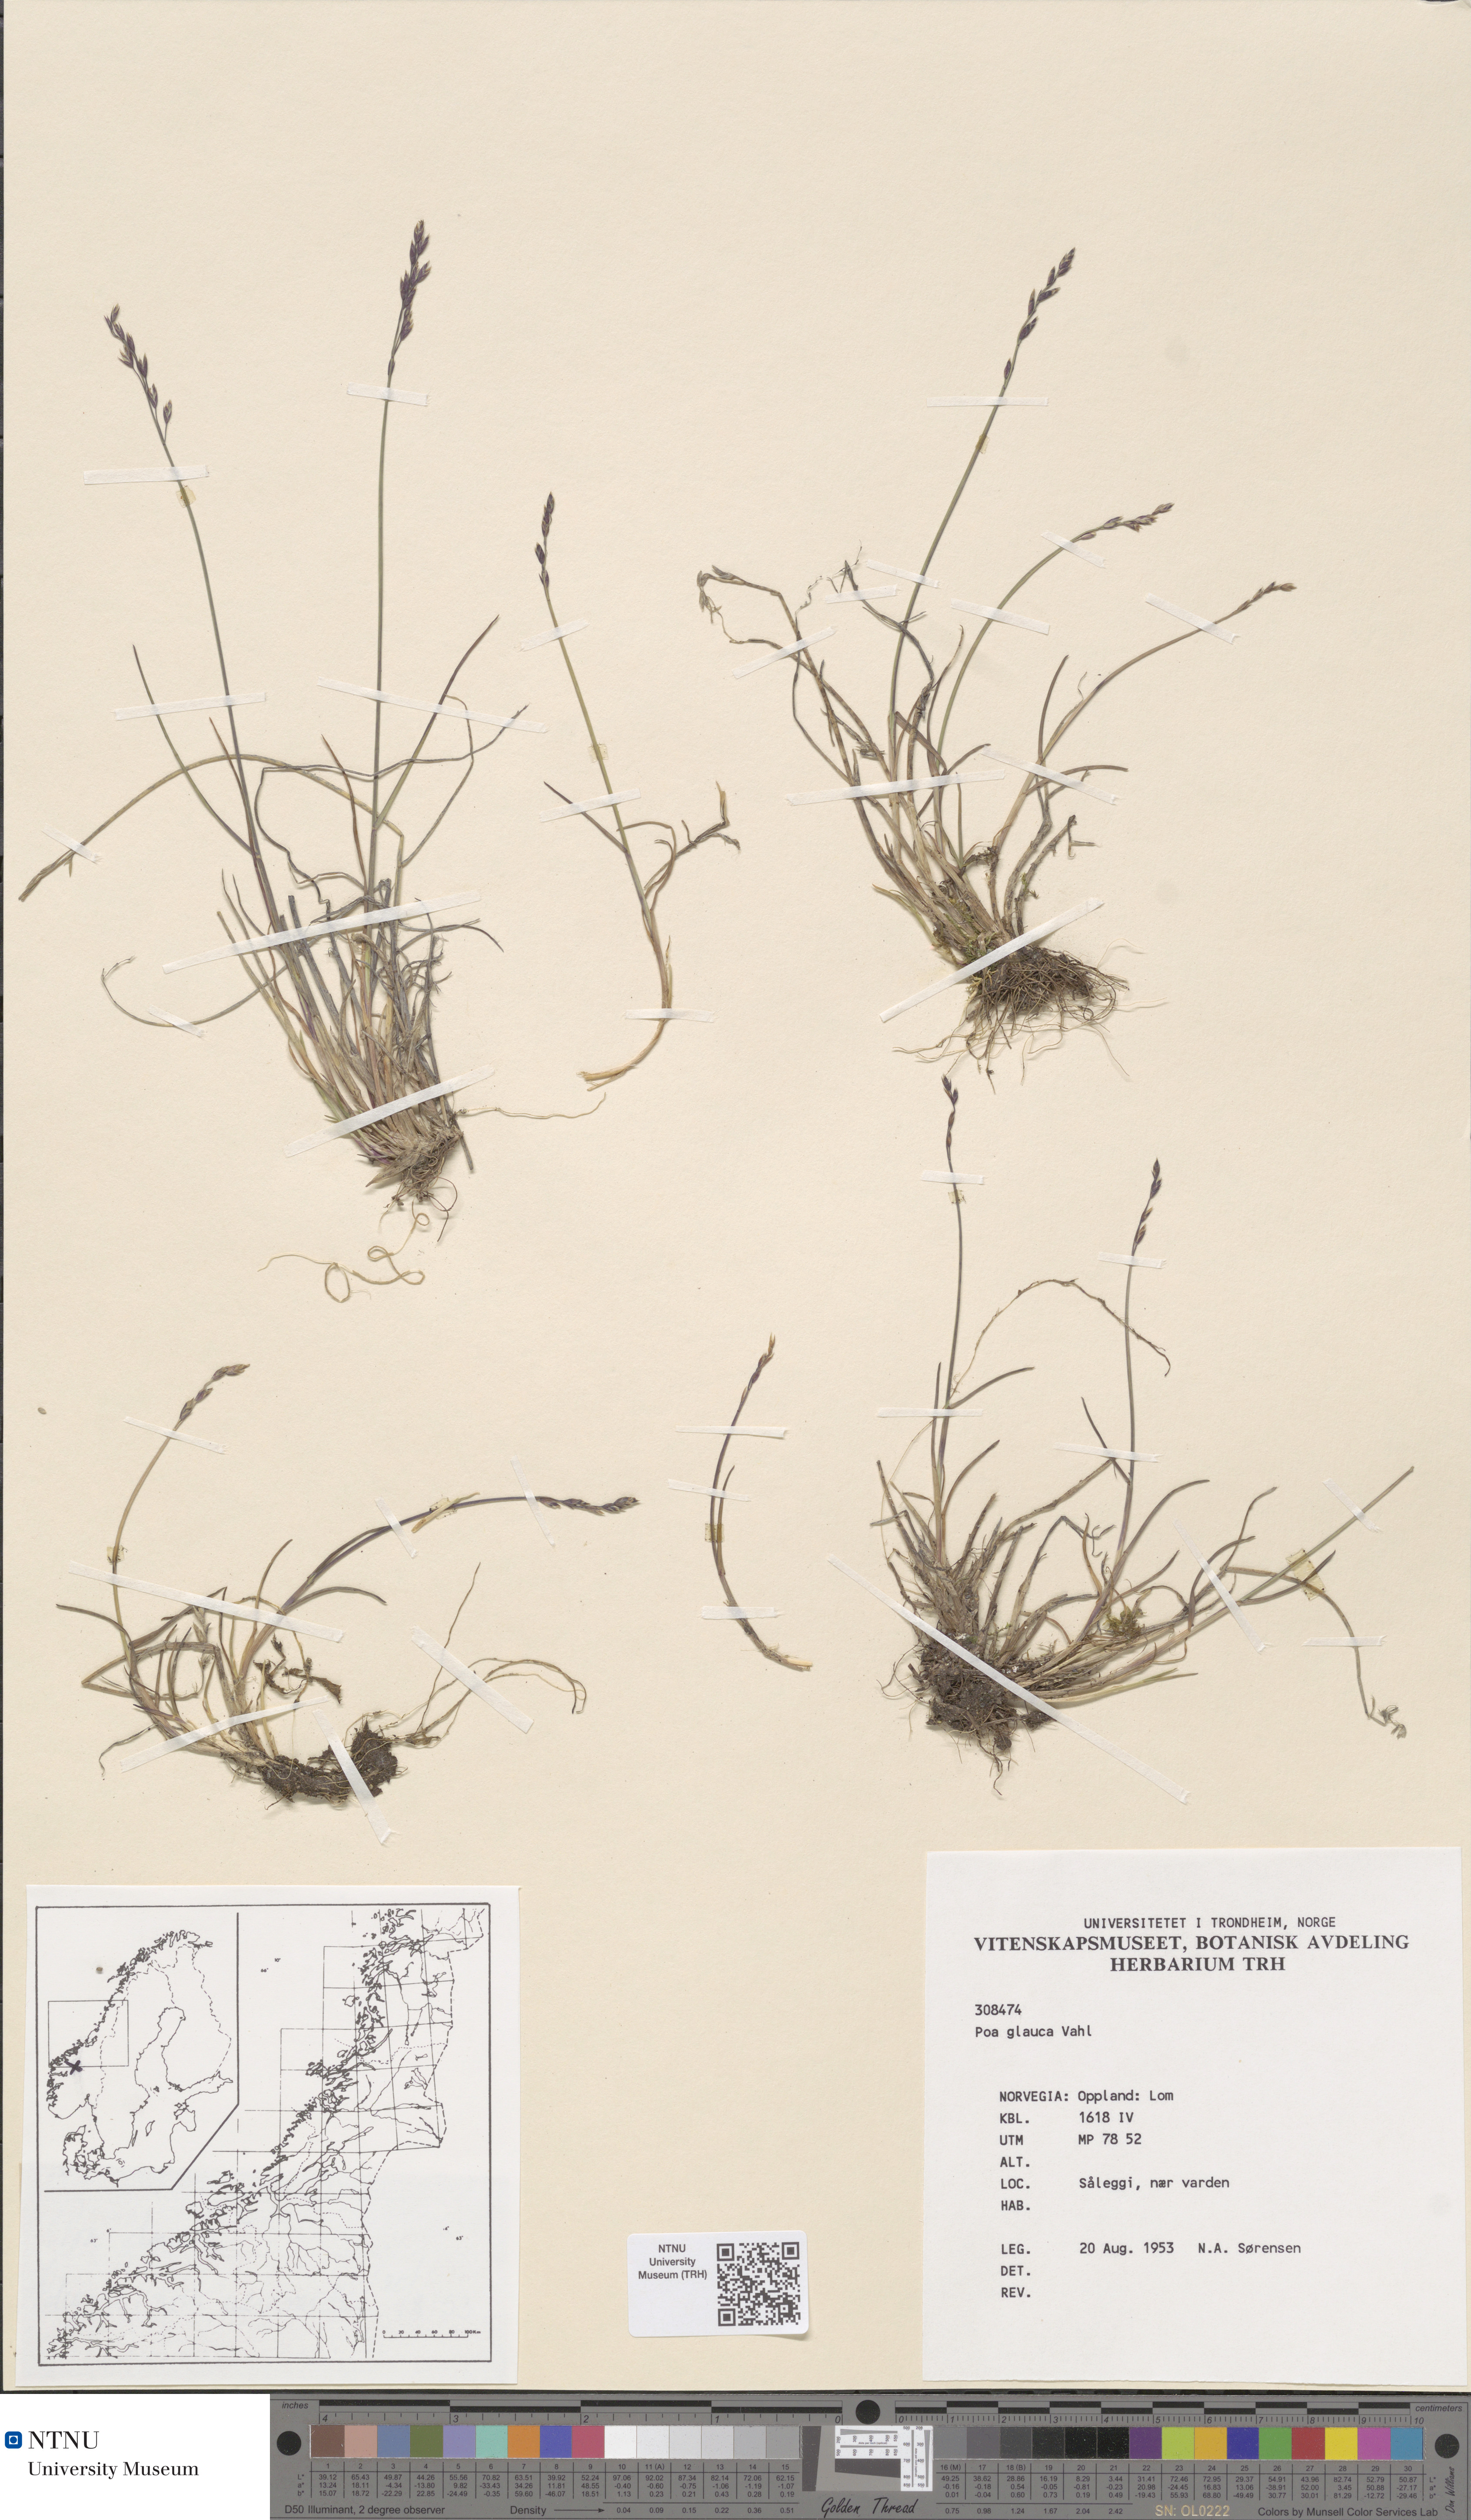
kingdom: Plantae
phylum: Tracheophyta
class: Liliopsida
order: Poales
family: Poaceae
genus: Poa
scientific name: Poa glauca
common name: Glaucous bluegrass
